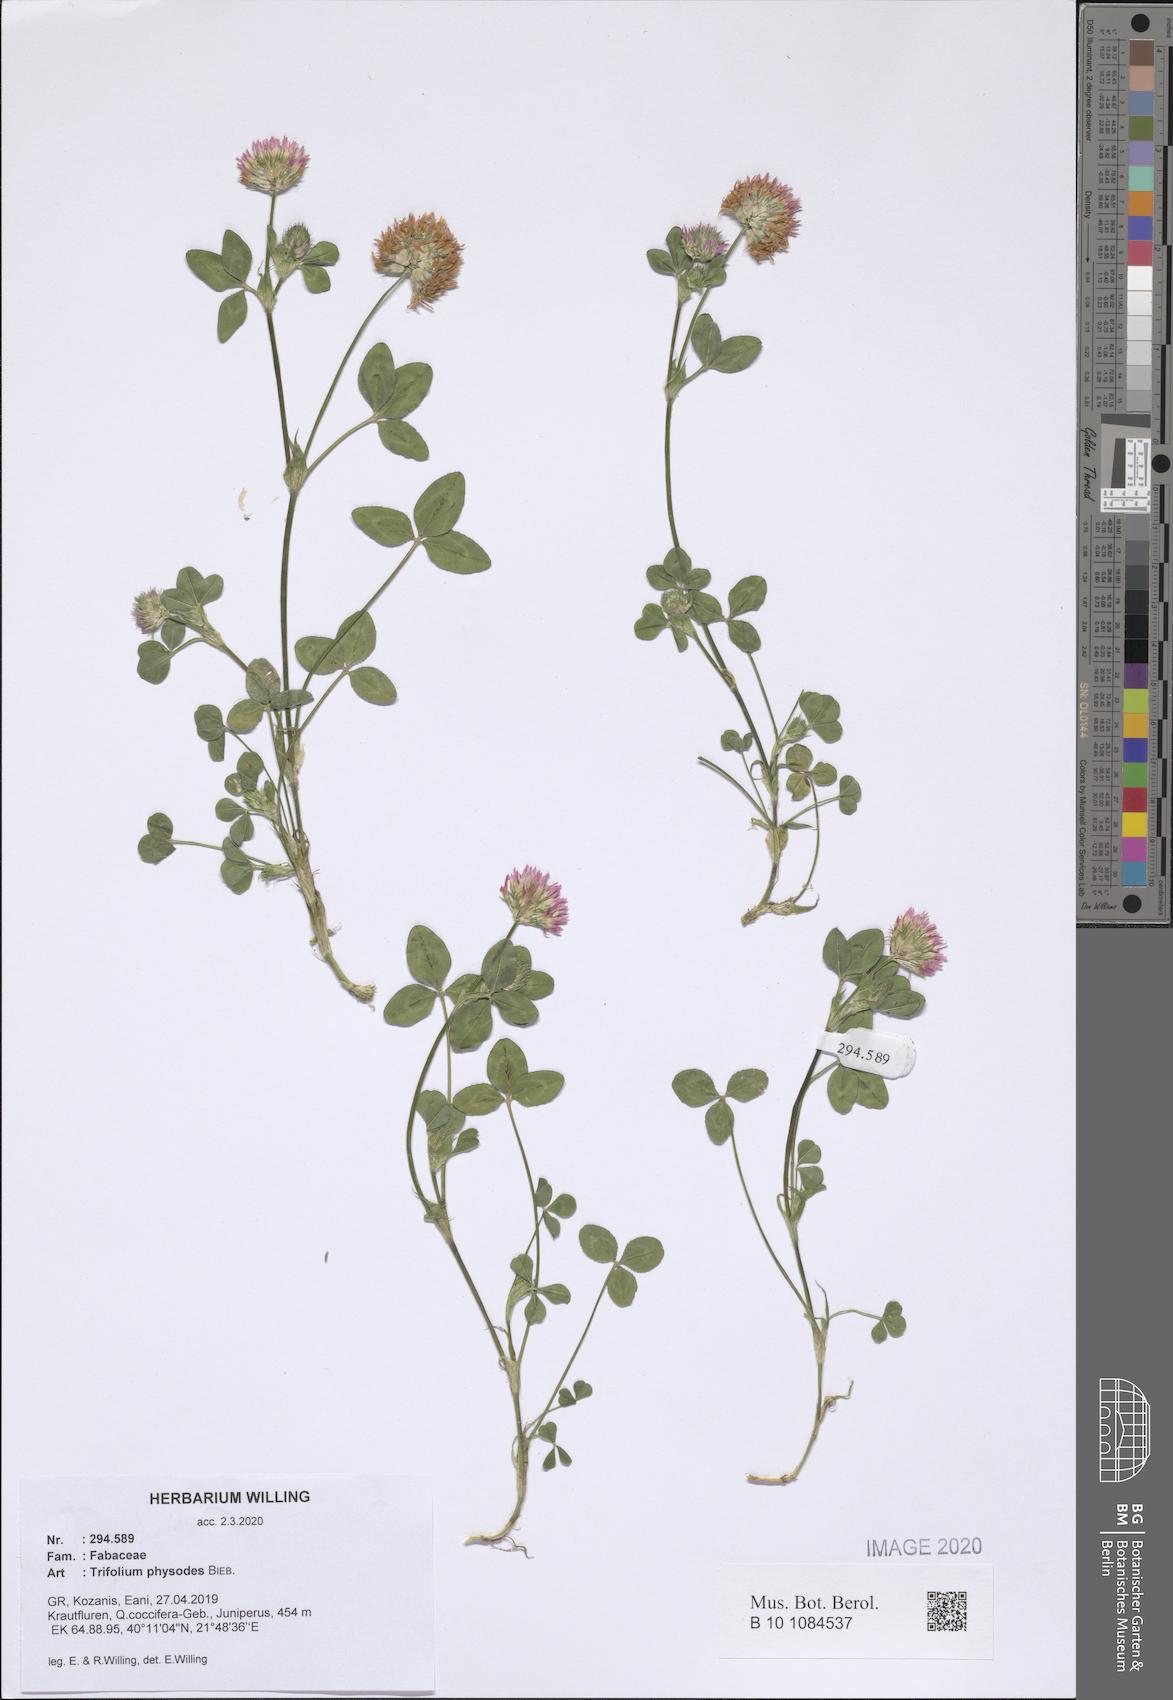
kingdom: Plantae
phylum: Tracheophyta
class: Magnoliopsida
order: Fabales
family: Fabaceae
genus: Trifolium
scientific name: Trifolium physodes
